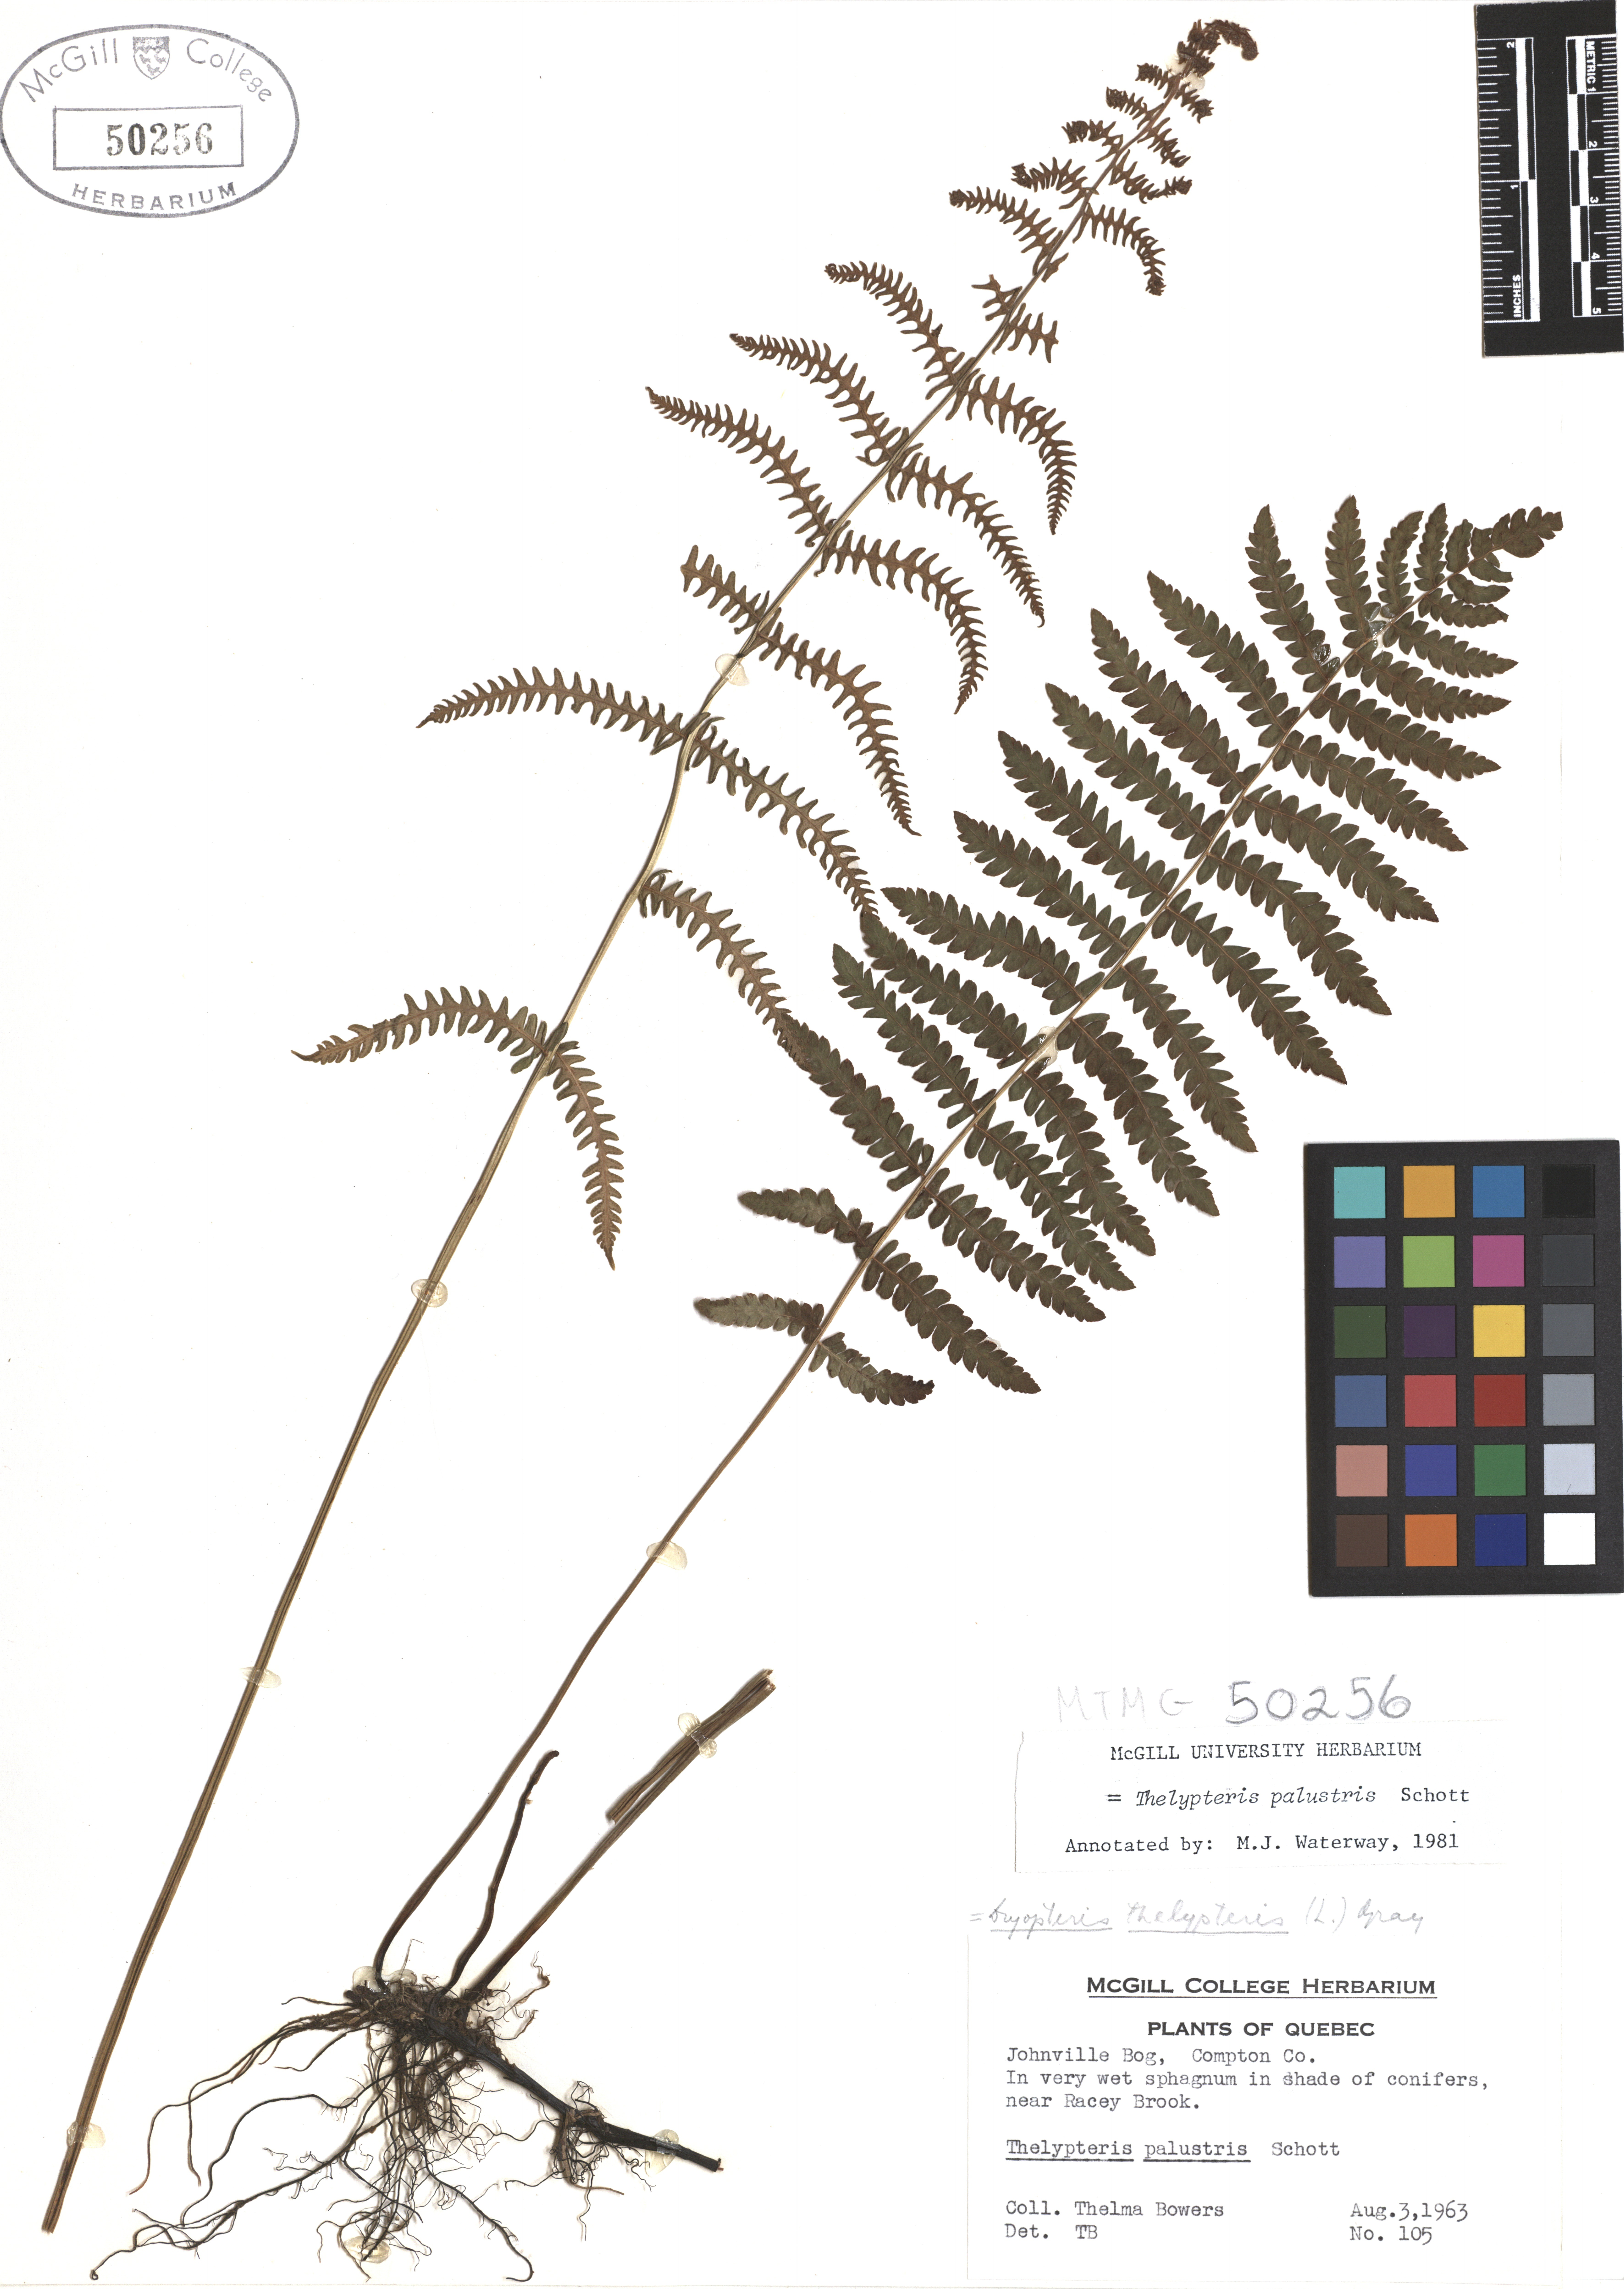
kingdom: Plantae
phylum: Tracheophyta
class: Polypodiopsida
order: Polypodiales
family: Thelypteridaceae
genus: Thelypteris
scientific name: Thelypteris palustris
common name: Marsh fern
